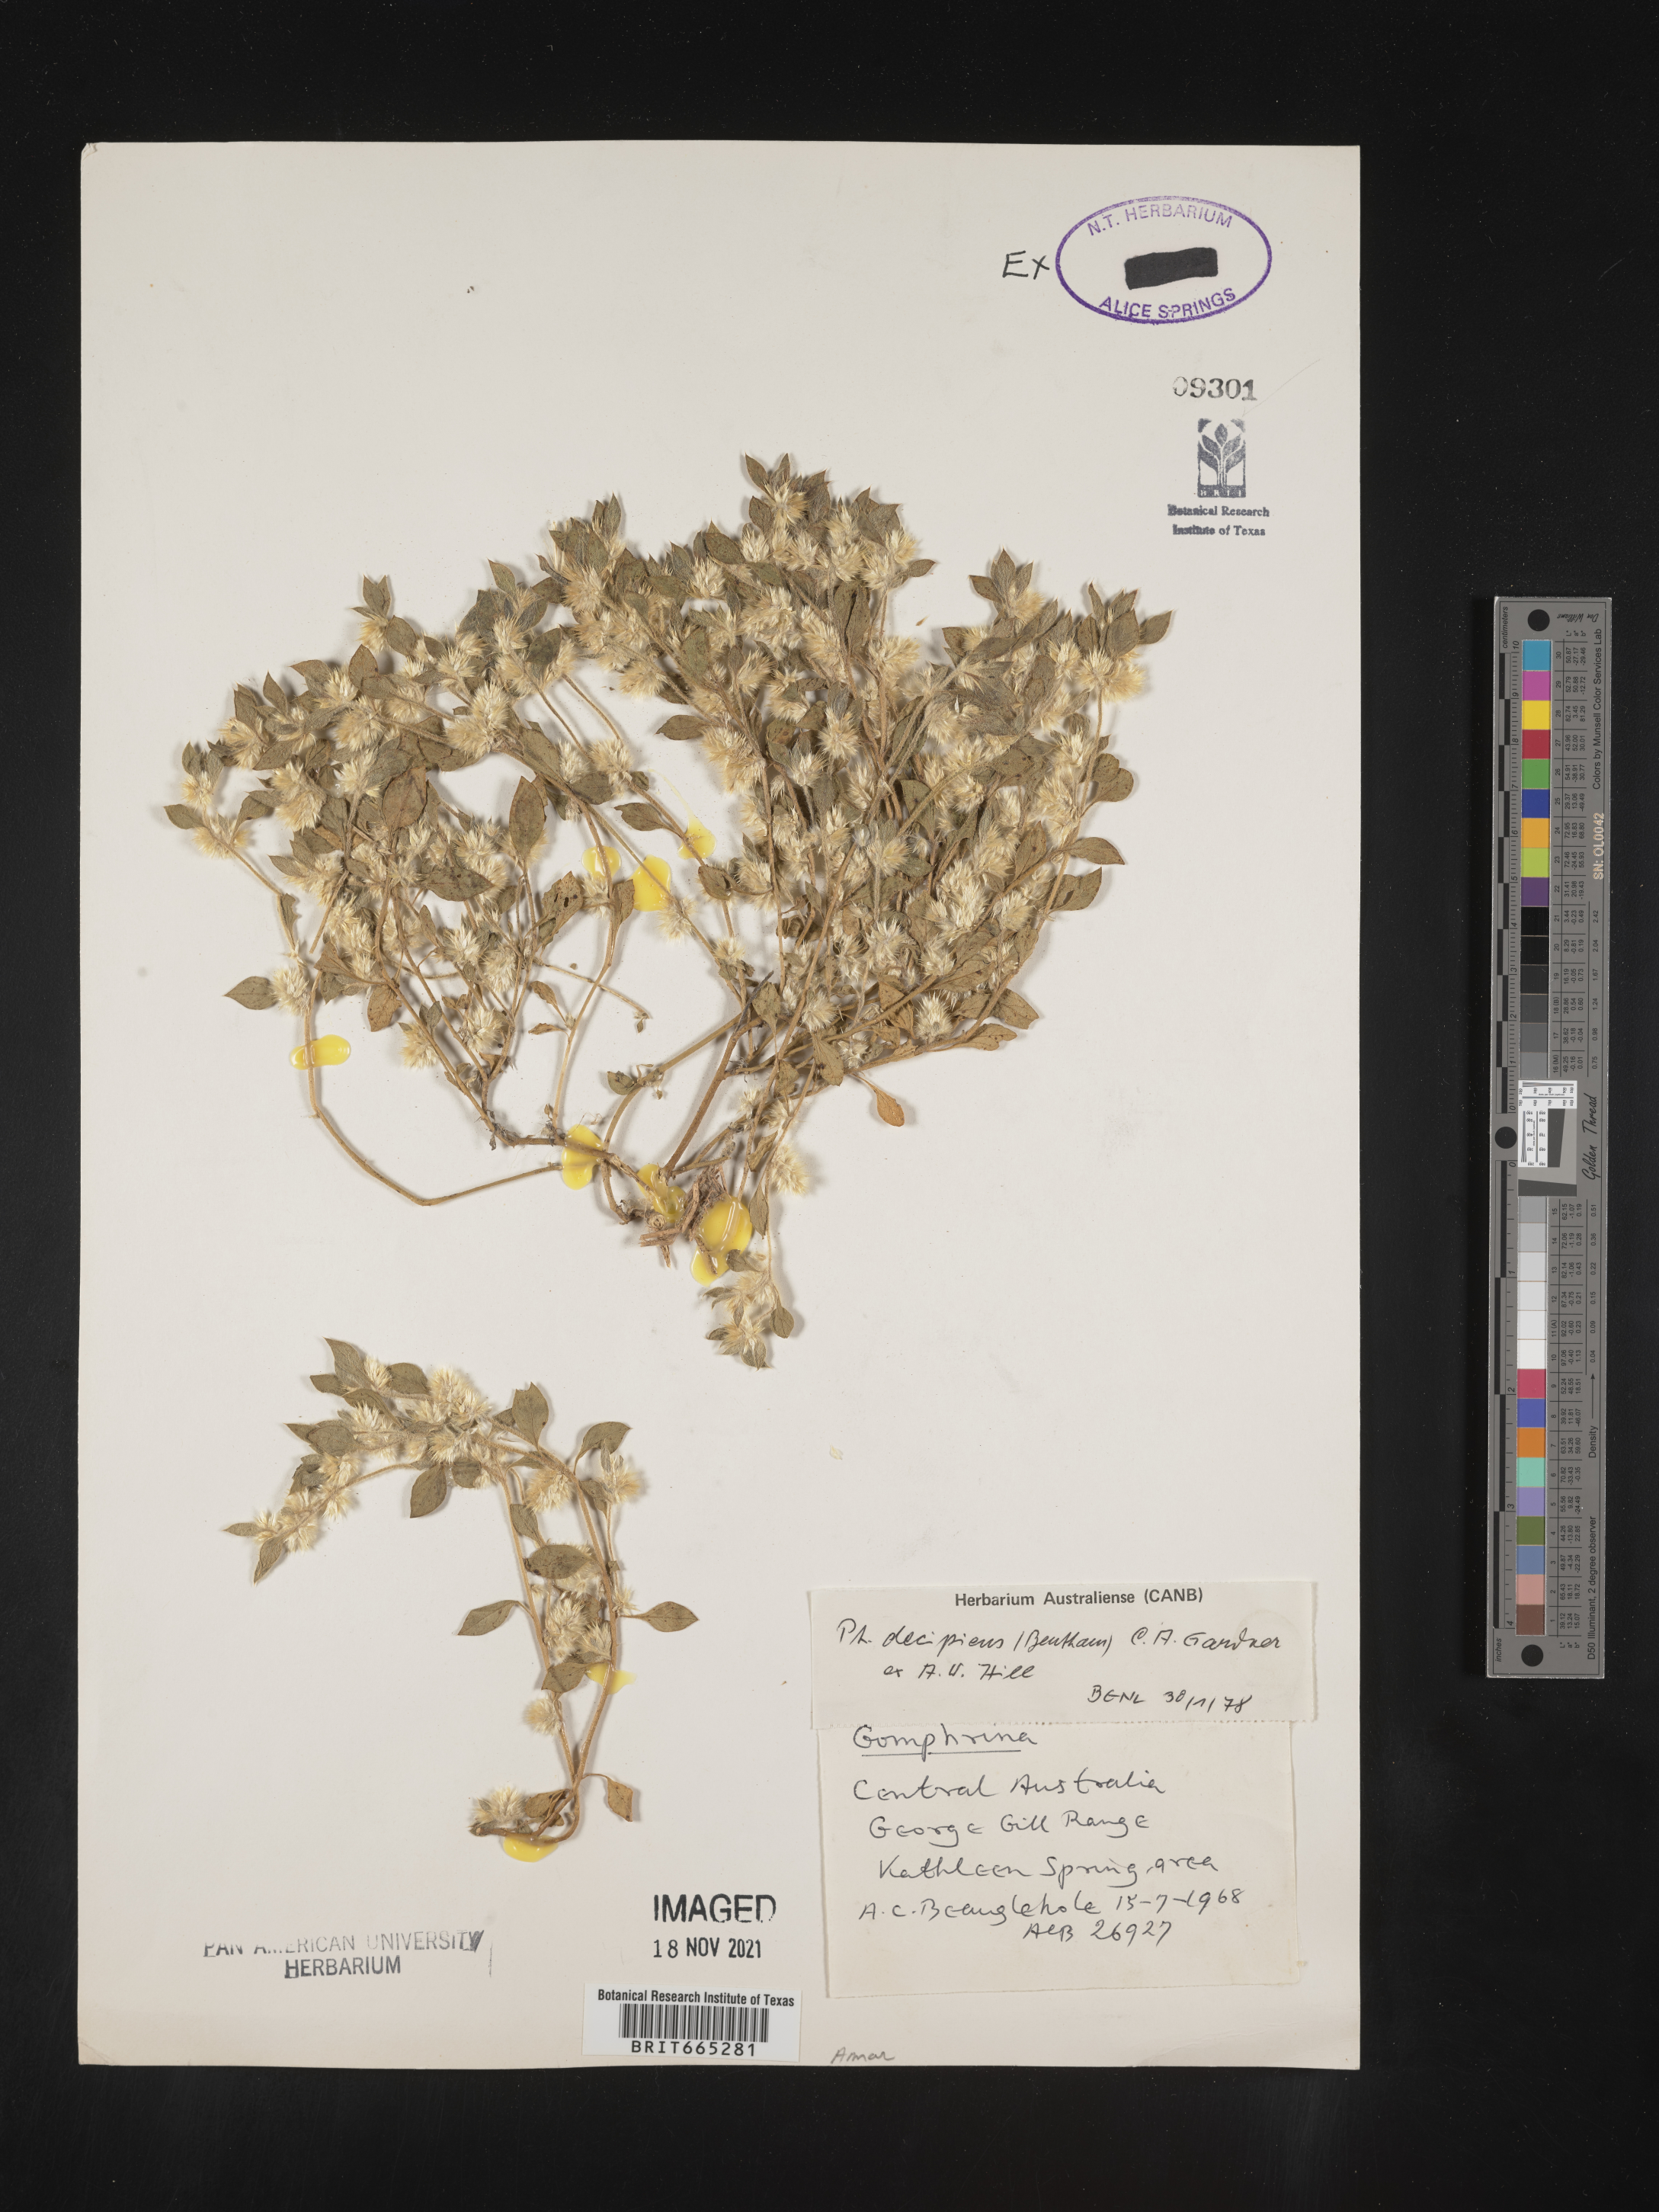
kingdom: Plantae
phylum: Tracheophyta
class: Magnoliopsida
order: Caryophyllales
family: Amaranthaceae
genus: Gomphrena
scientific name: Gomphrena
